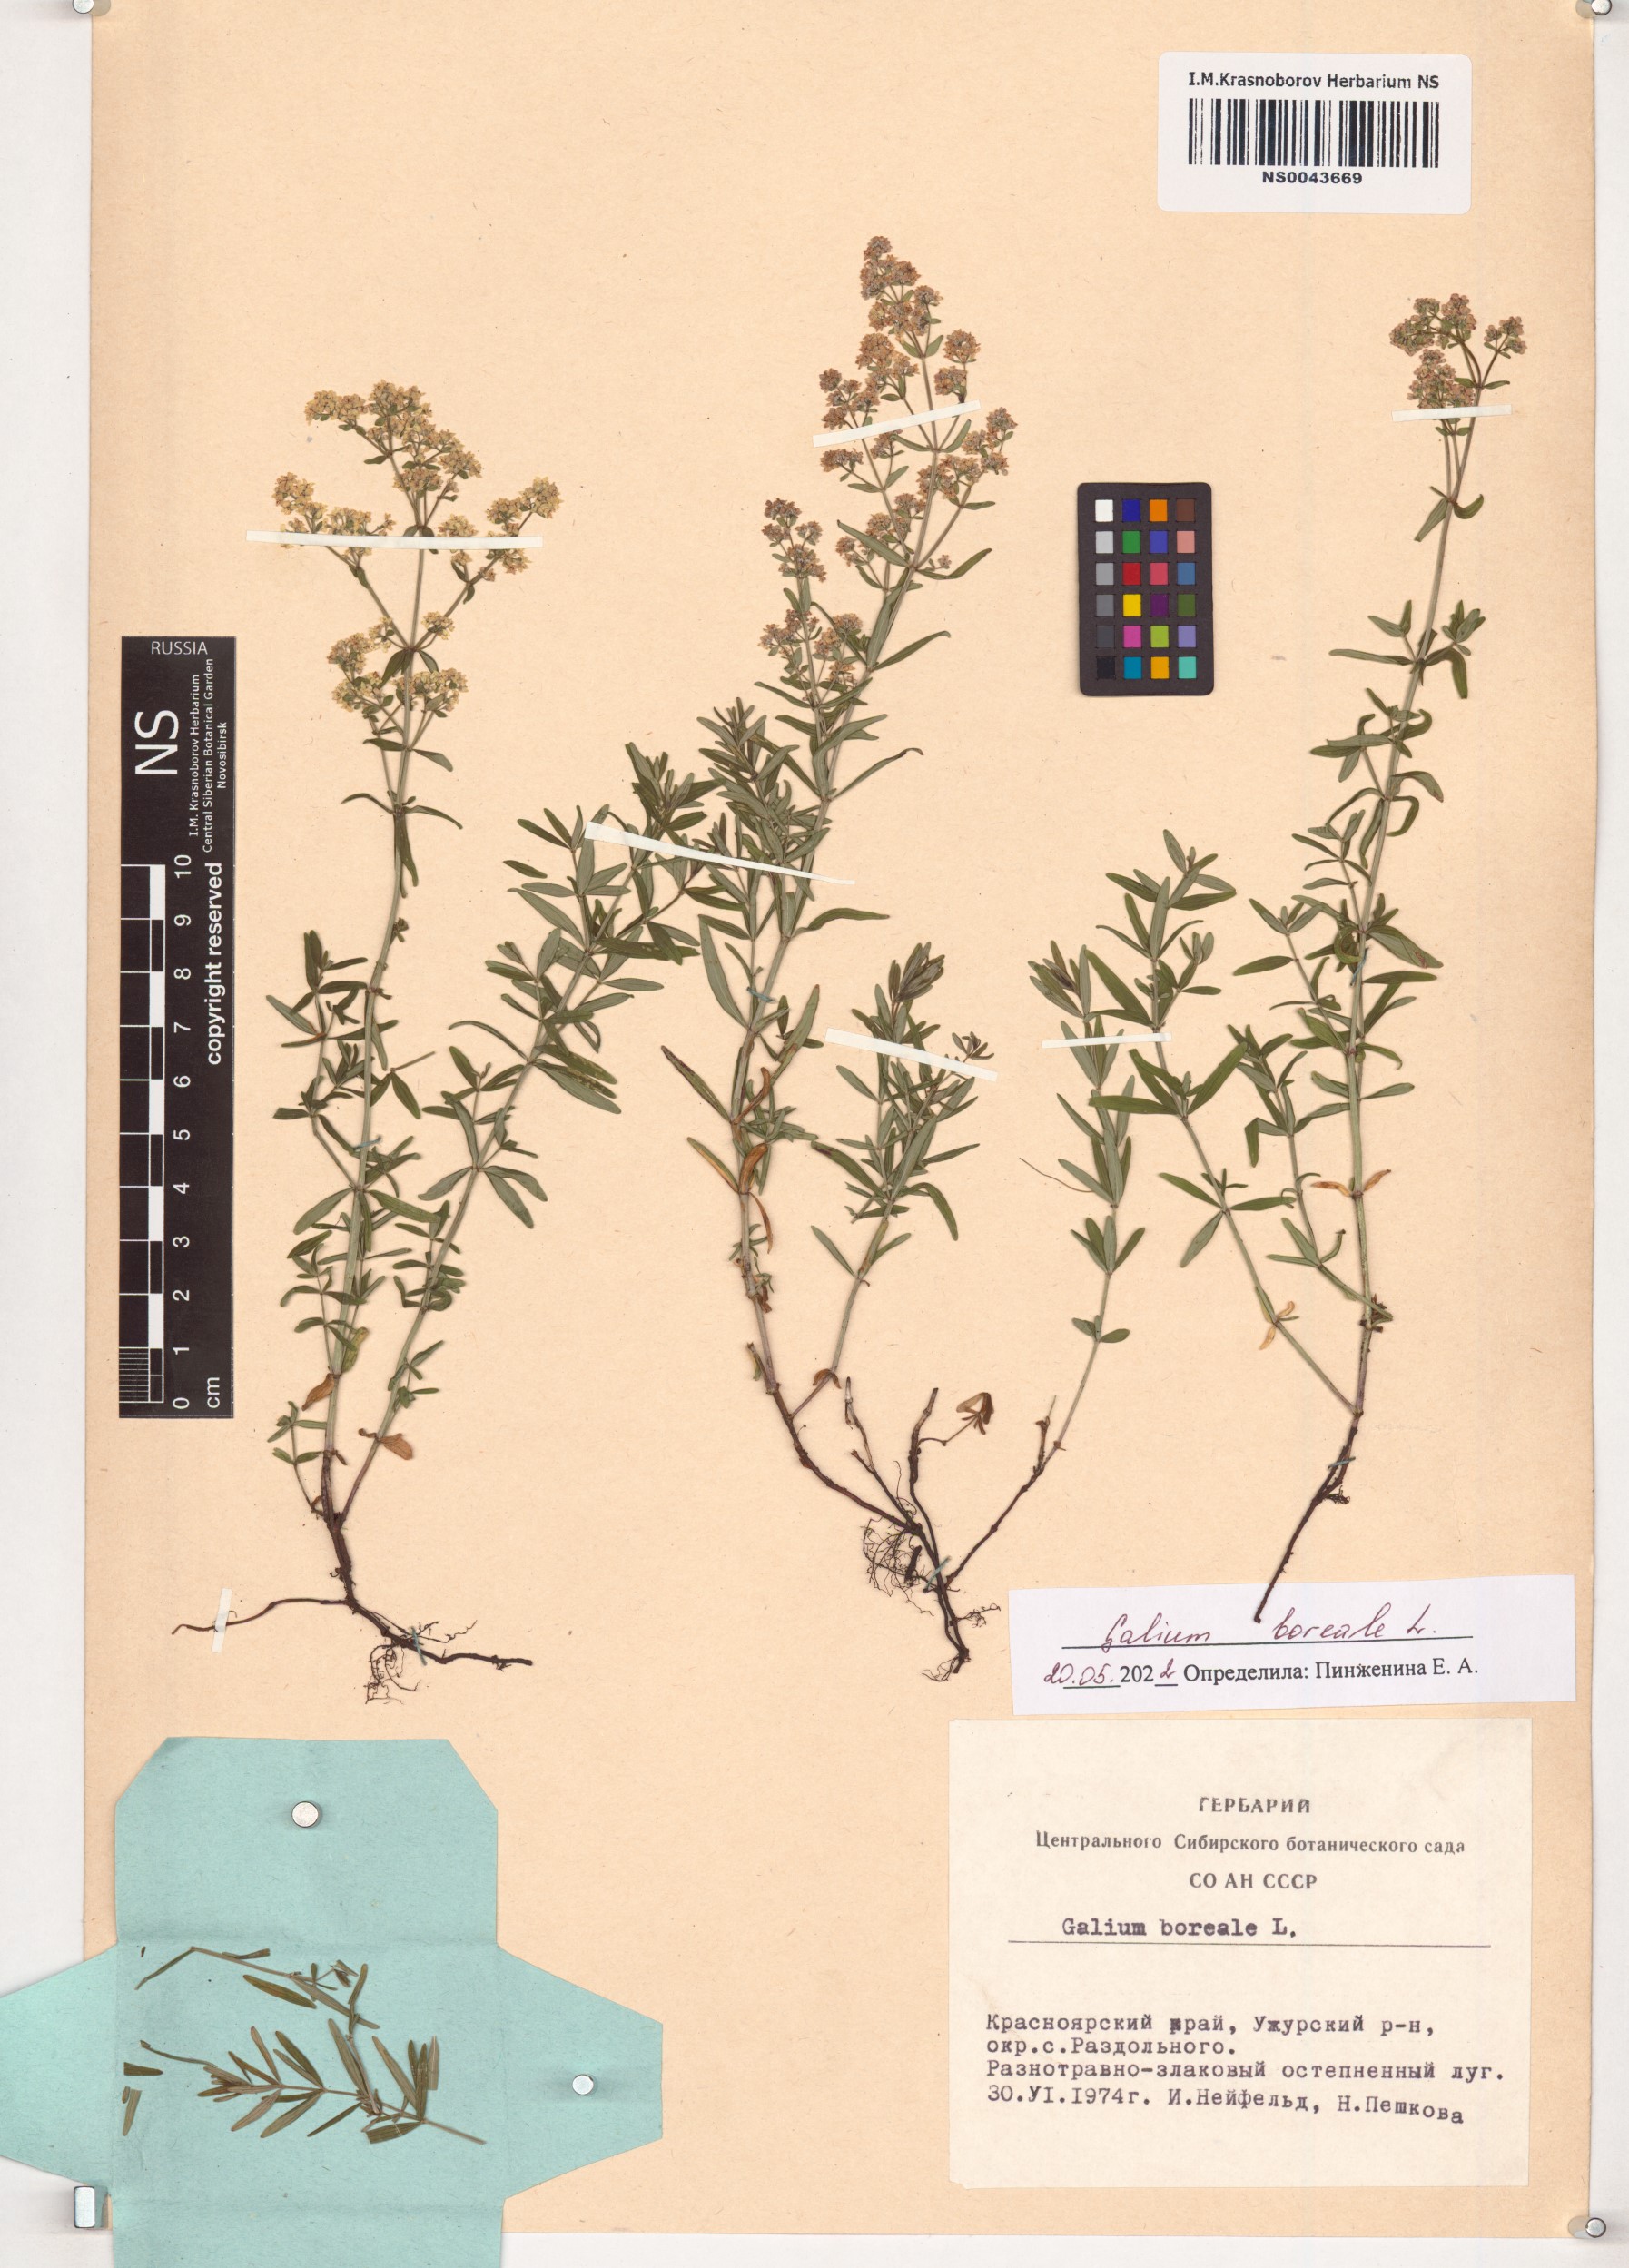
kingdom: Plantae
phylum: Tracheophyta
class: Magnoliopsida
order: Gentianales
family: Rubiaceae
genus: Galium
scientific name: Galium boreale
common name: Northern bedstraw
